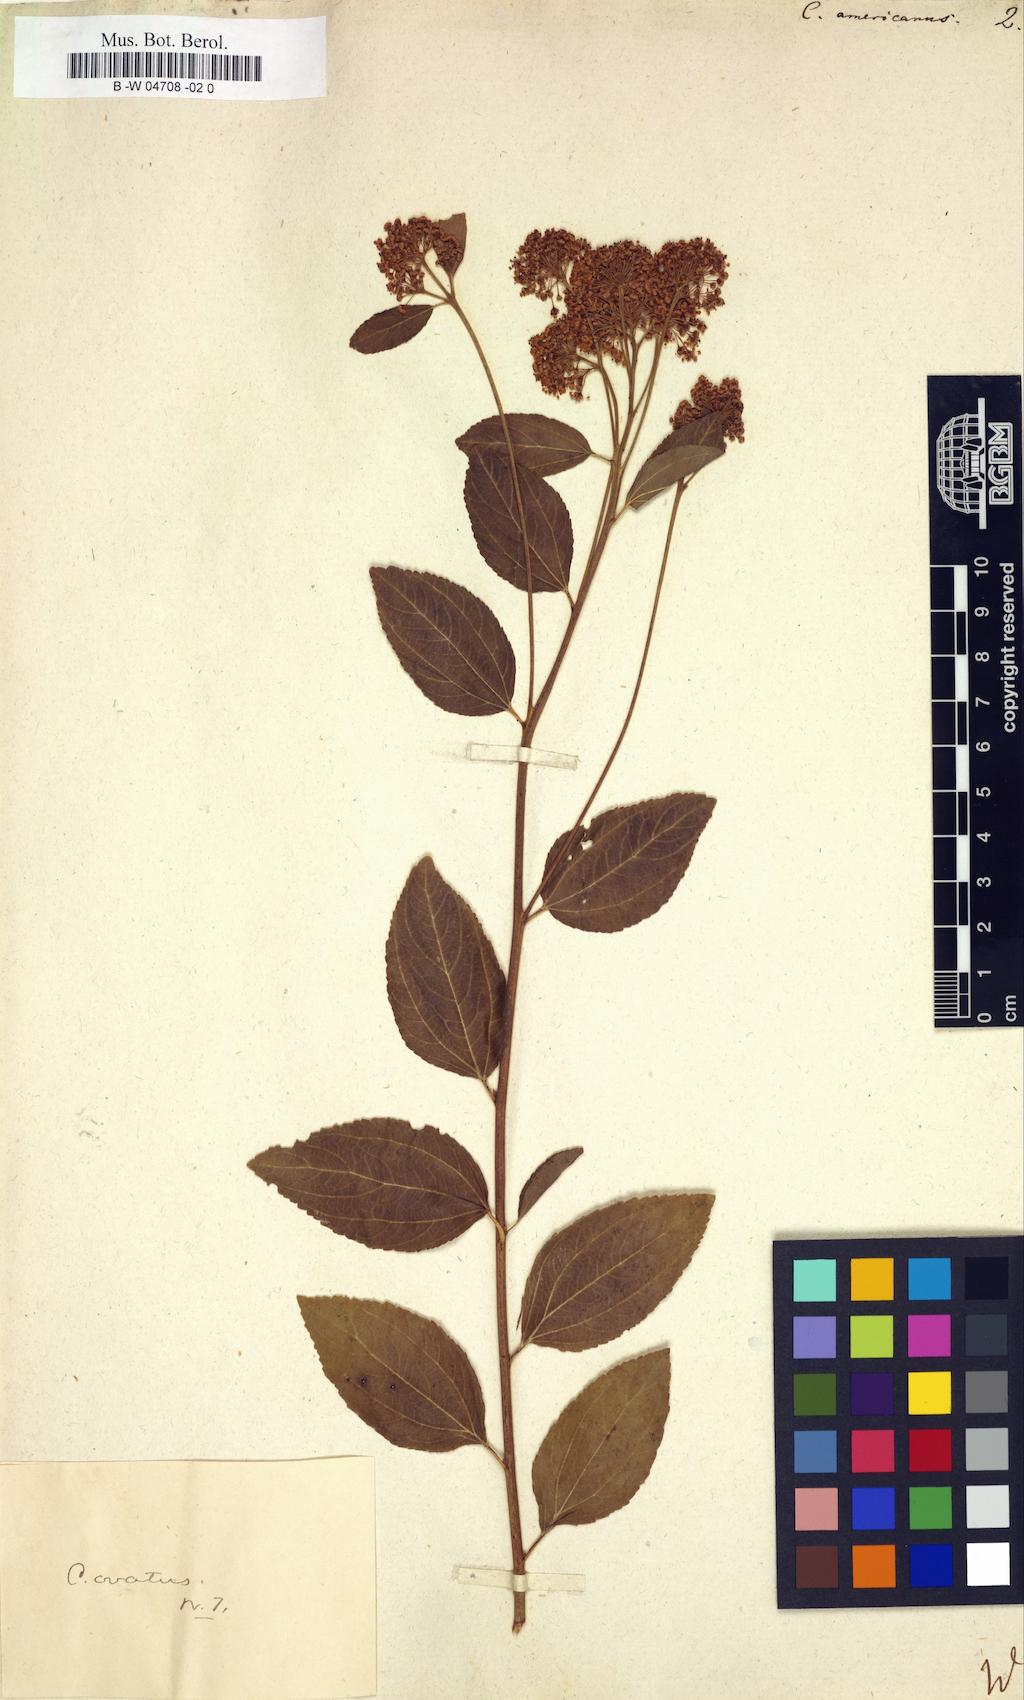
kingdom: Plantae
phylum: Tracheophyta
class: Magnoliopsida
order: Rosales
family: Rhamnaceae
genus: Ceanothus
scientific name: Ceanothus americanus
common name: Redroot
